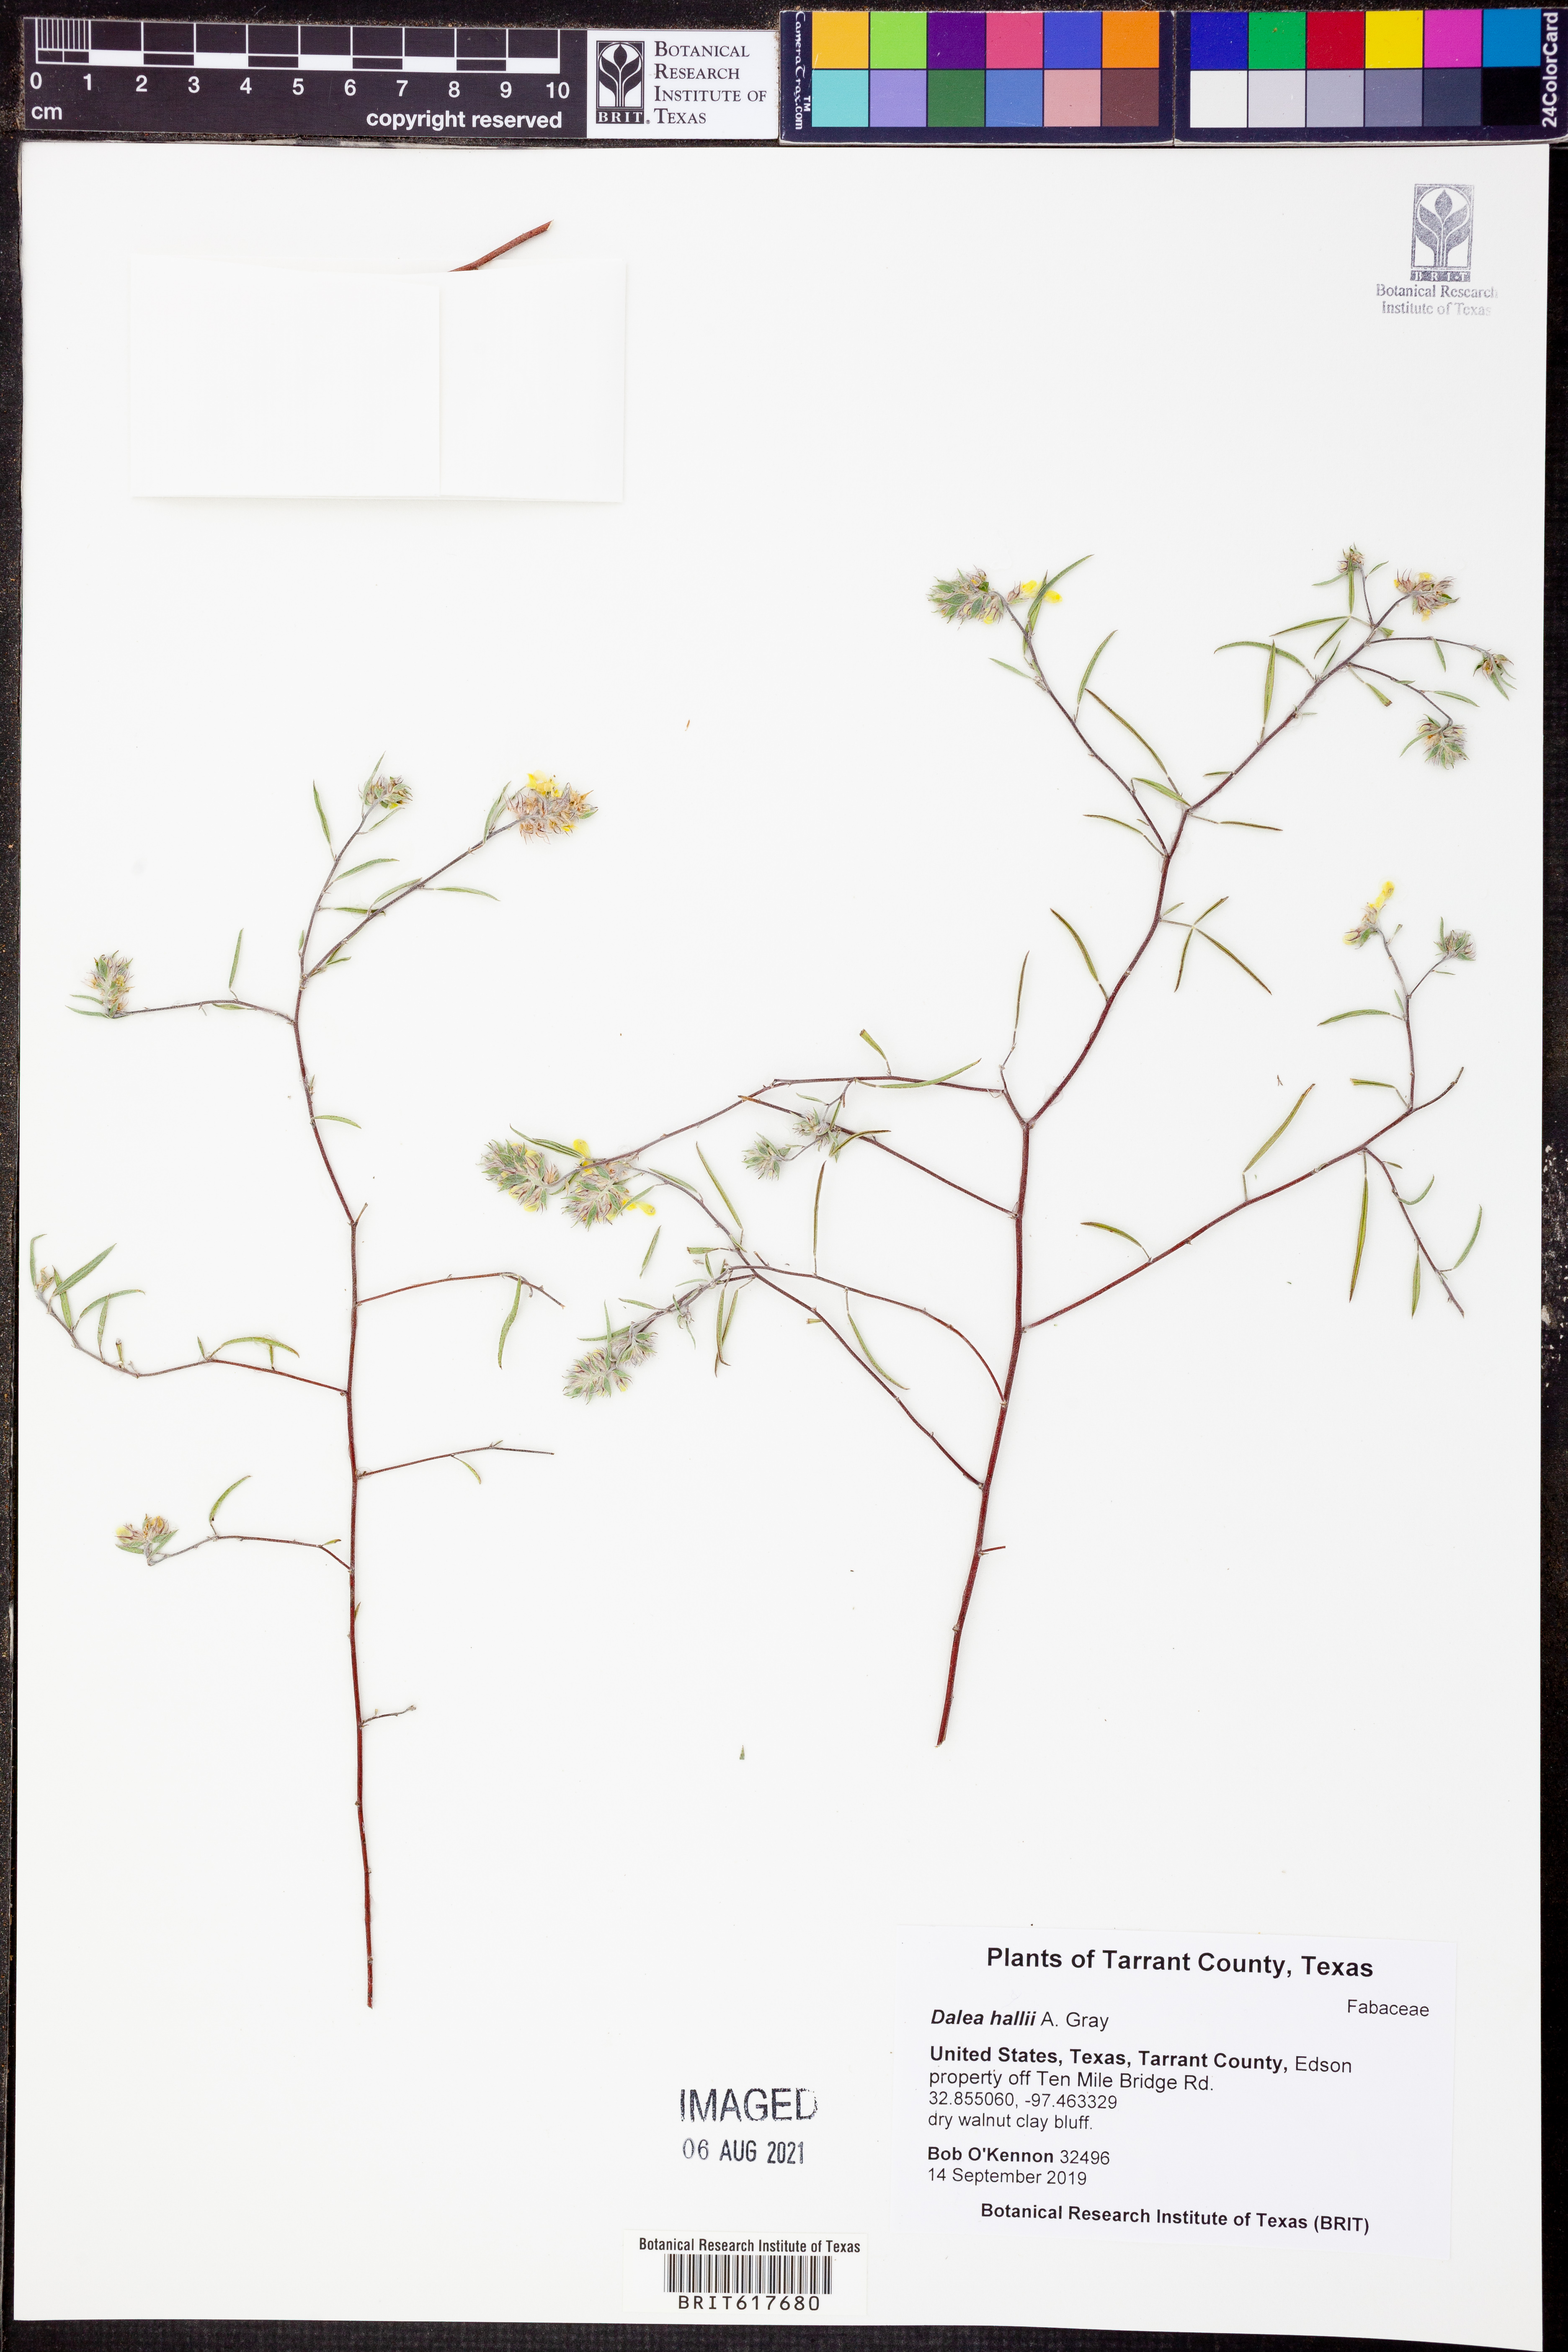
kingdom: Plantae
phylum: Tracheophyta
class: Magnoliopsida
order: Fabales
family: Fabaceae
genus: Dalea
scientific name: Dalea hallii
